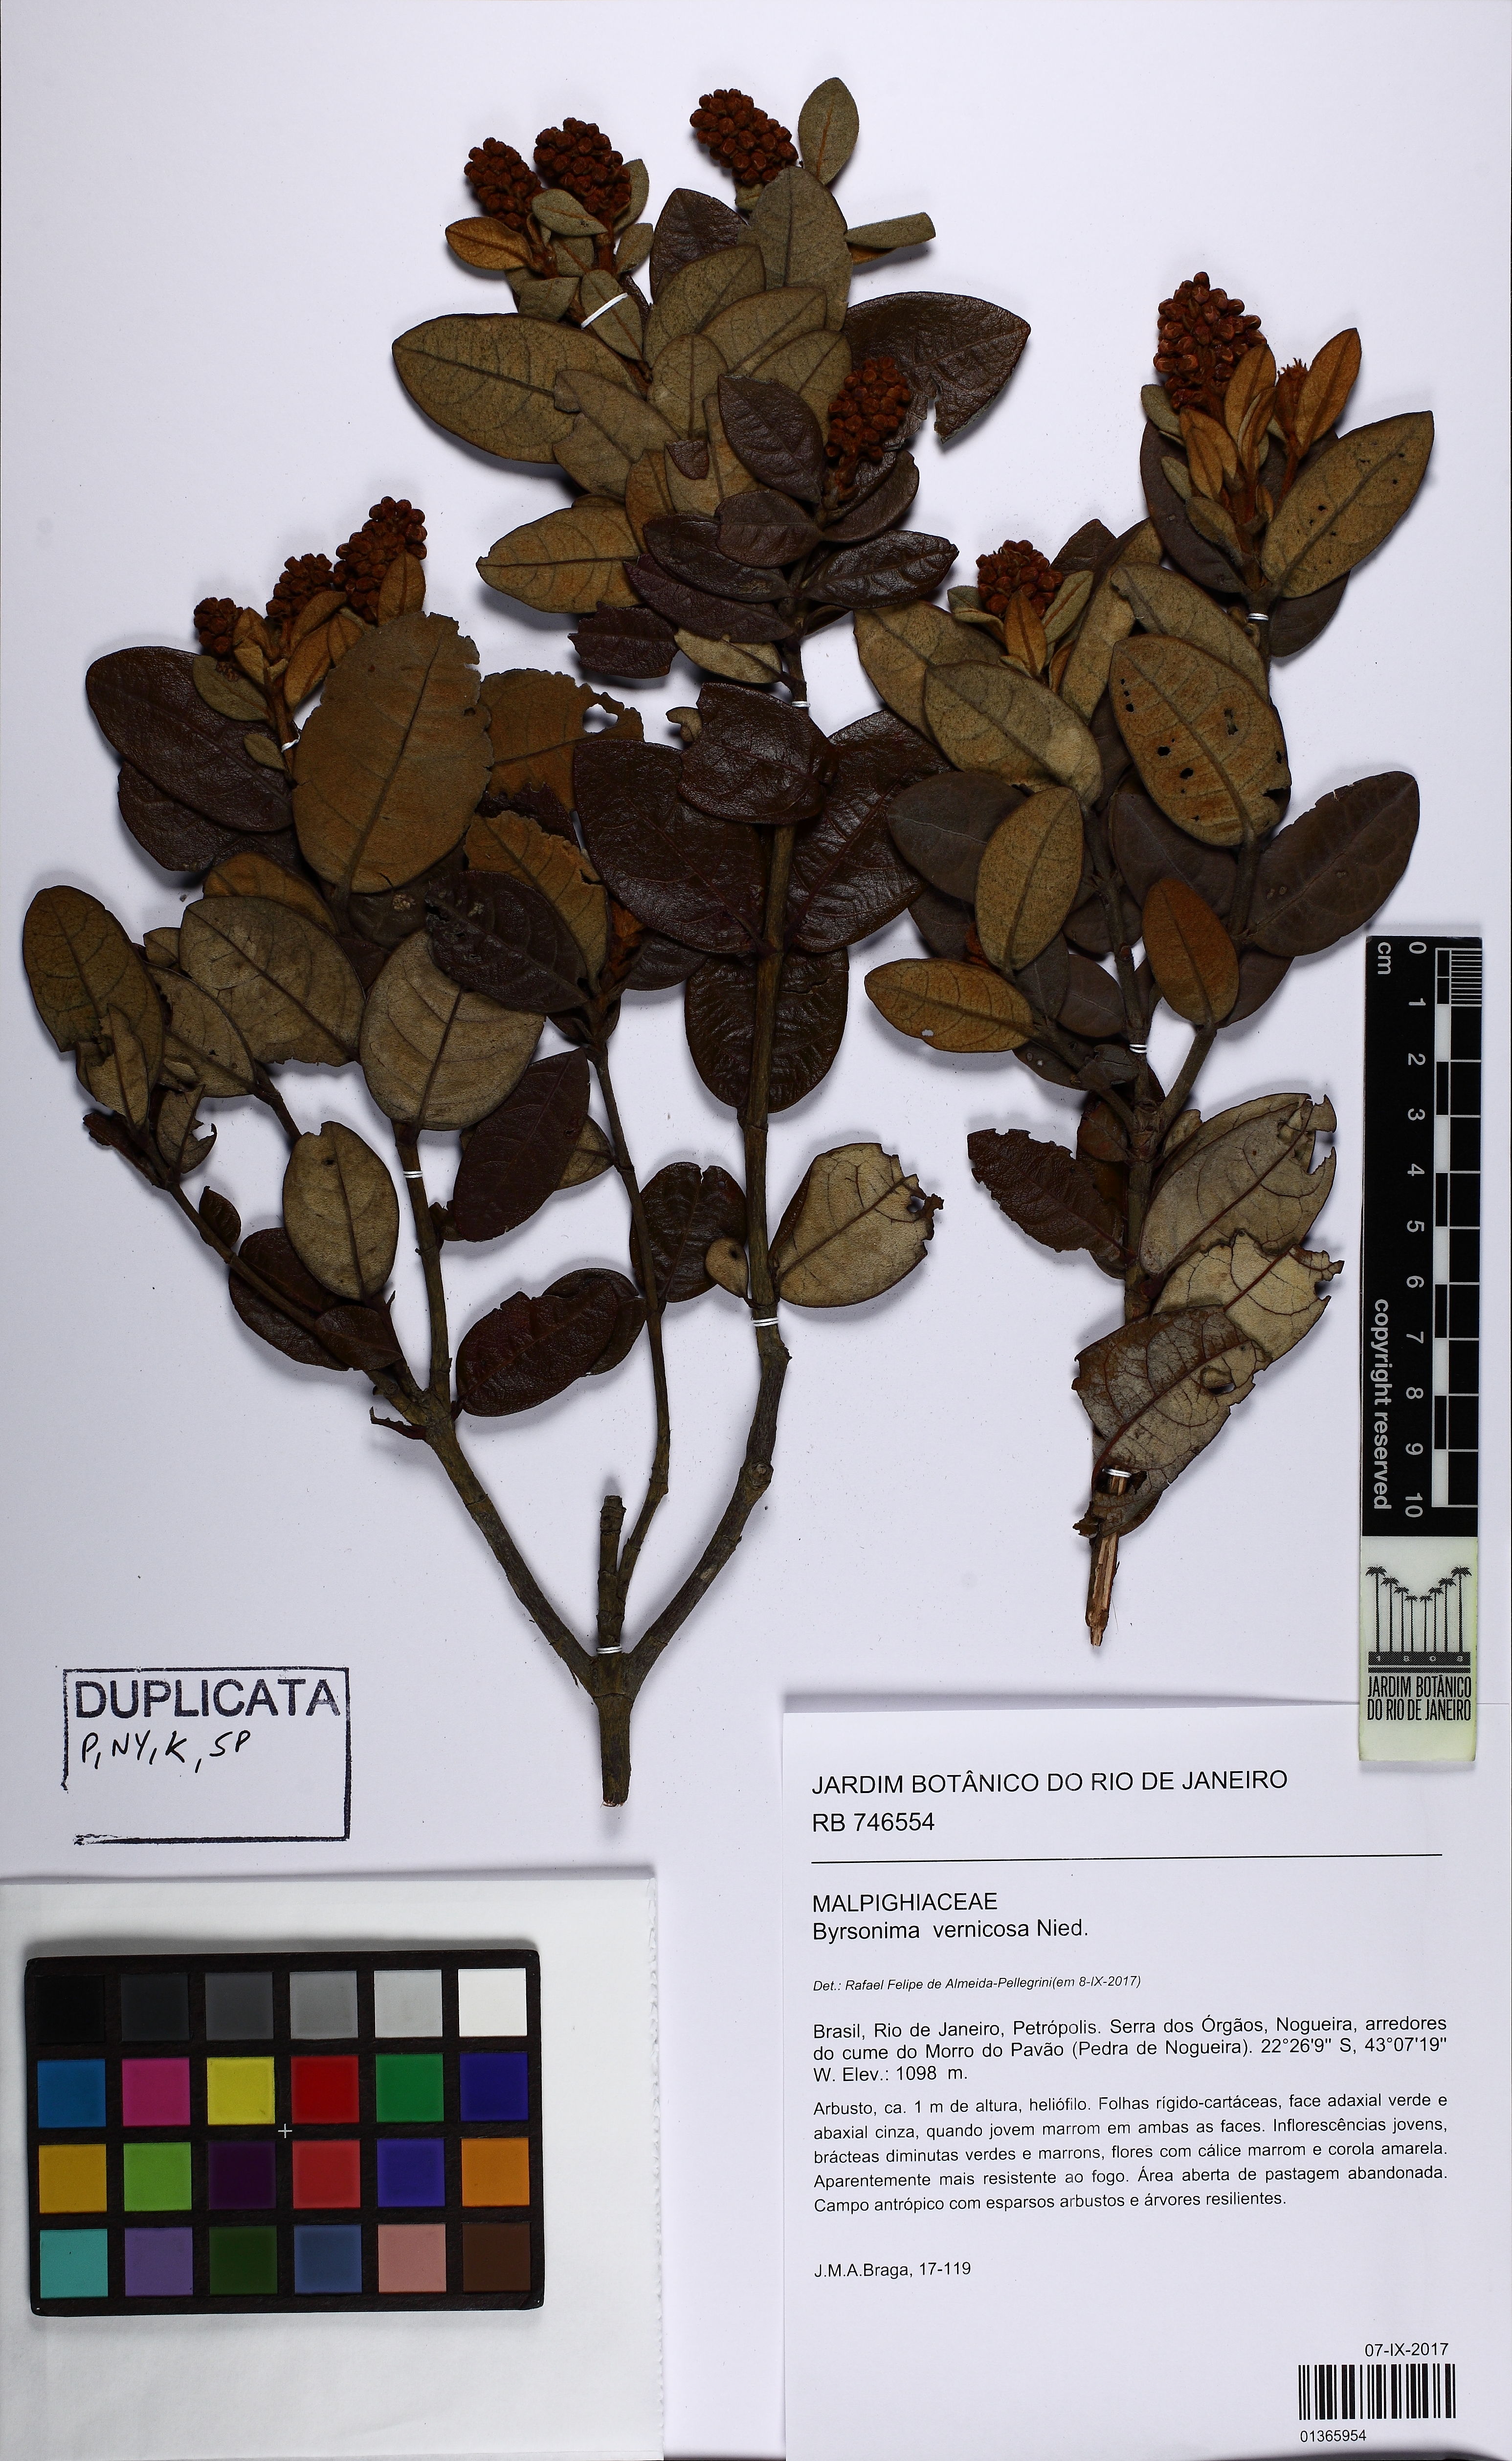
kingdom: Plantae
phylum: Tracheophyta
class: Magnoliopsida
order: Malpighiales
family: Malpighiaceae
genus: Byrsonima
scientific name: Byrsonima vernicosa
